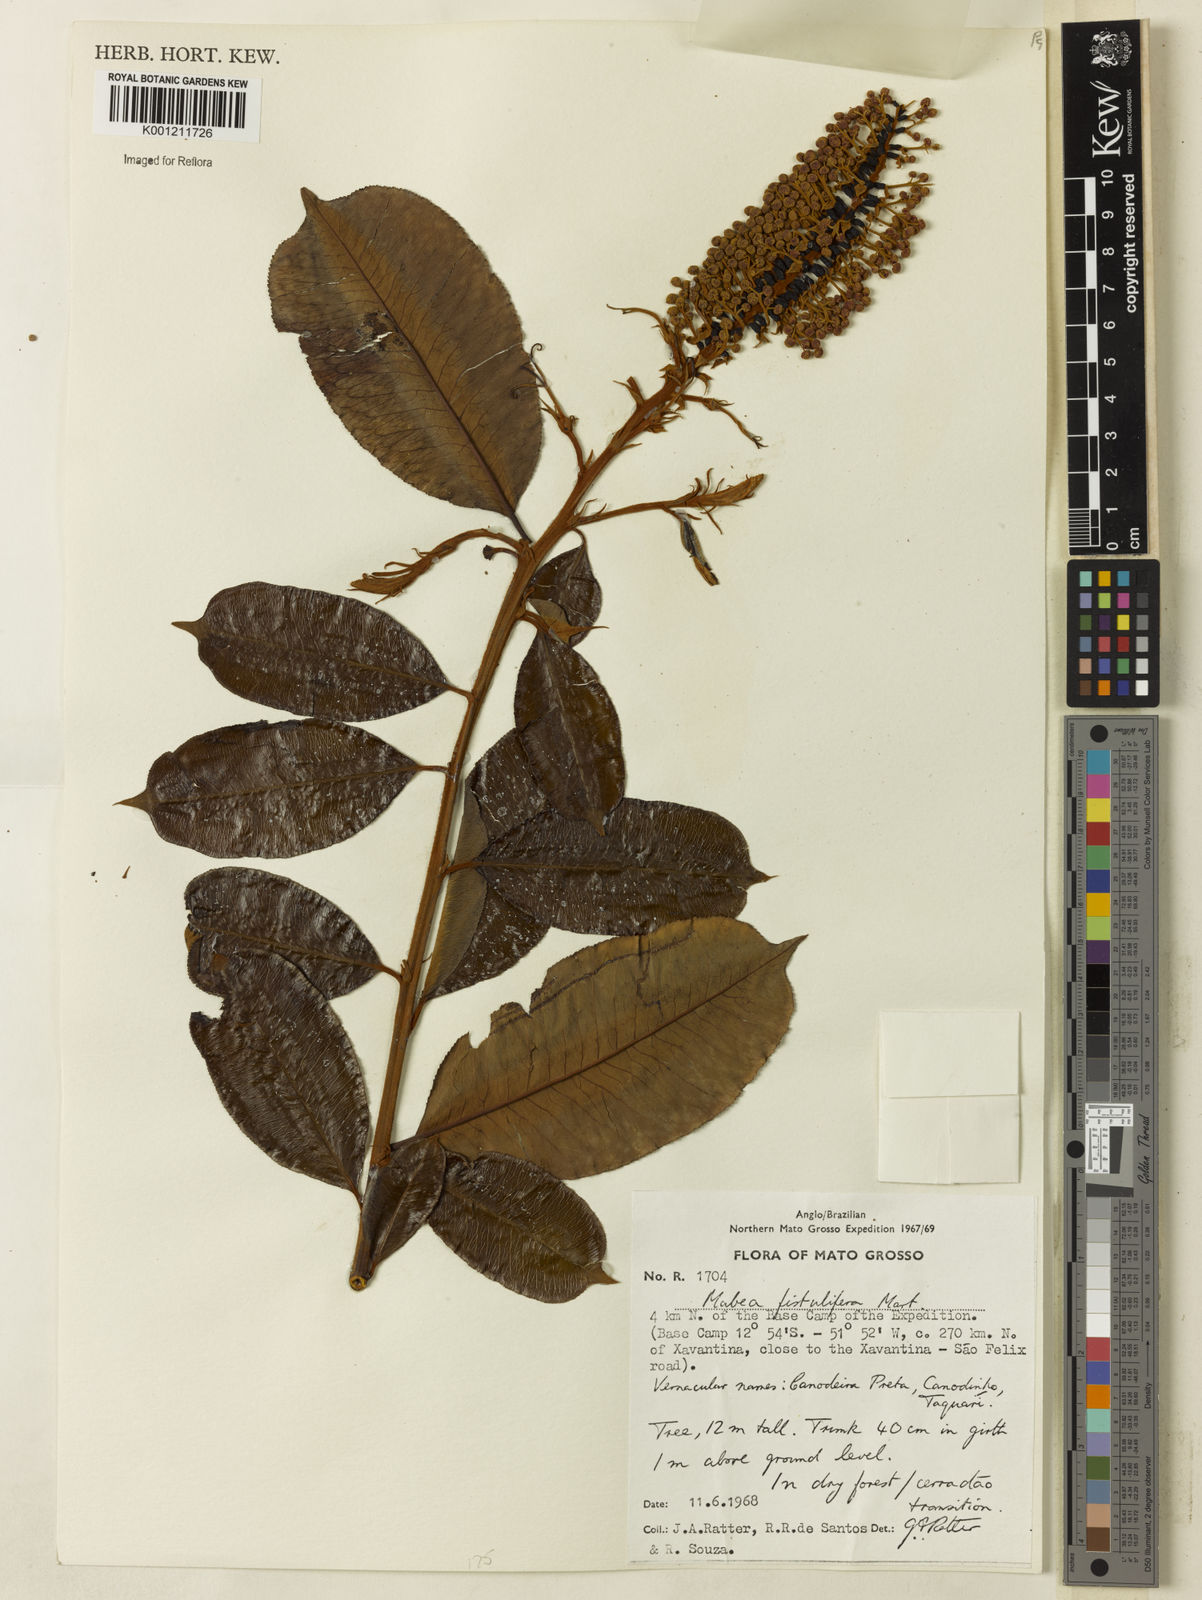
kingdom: Plantae
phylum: Tracheophyta
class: Magnoliopsida
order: Malpighiales
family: Euphorbiaceae
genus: Mabea
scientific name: Mabea fistulifera
